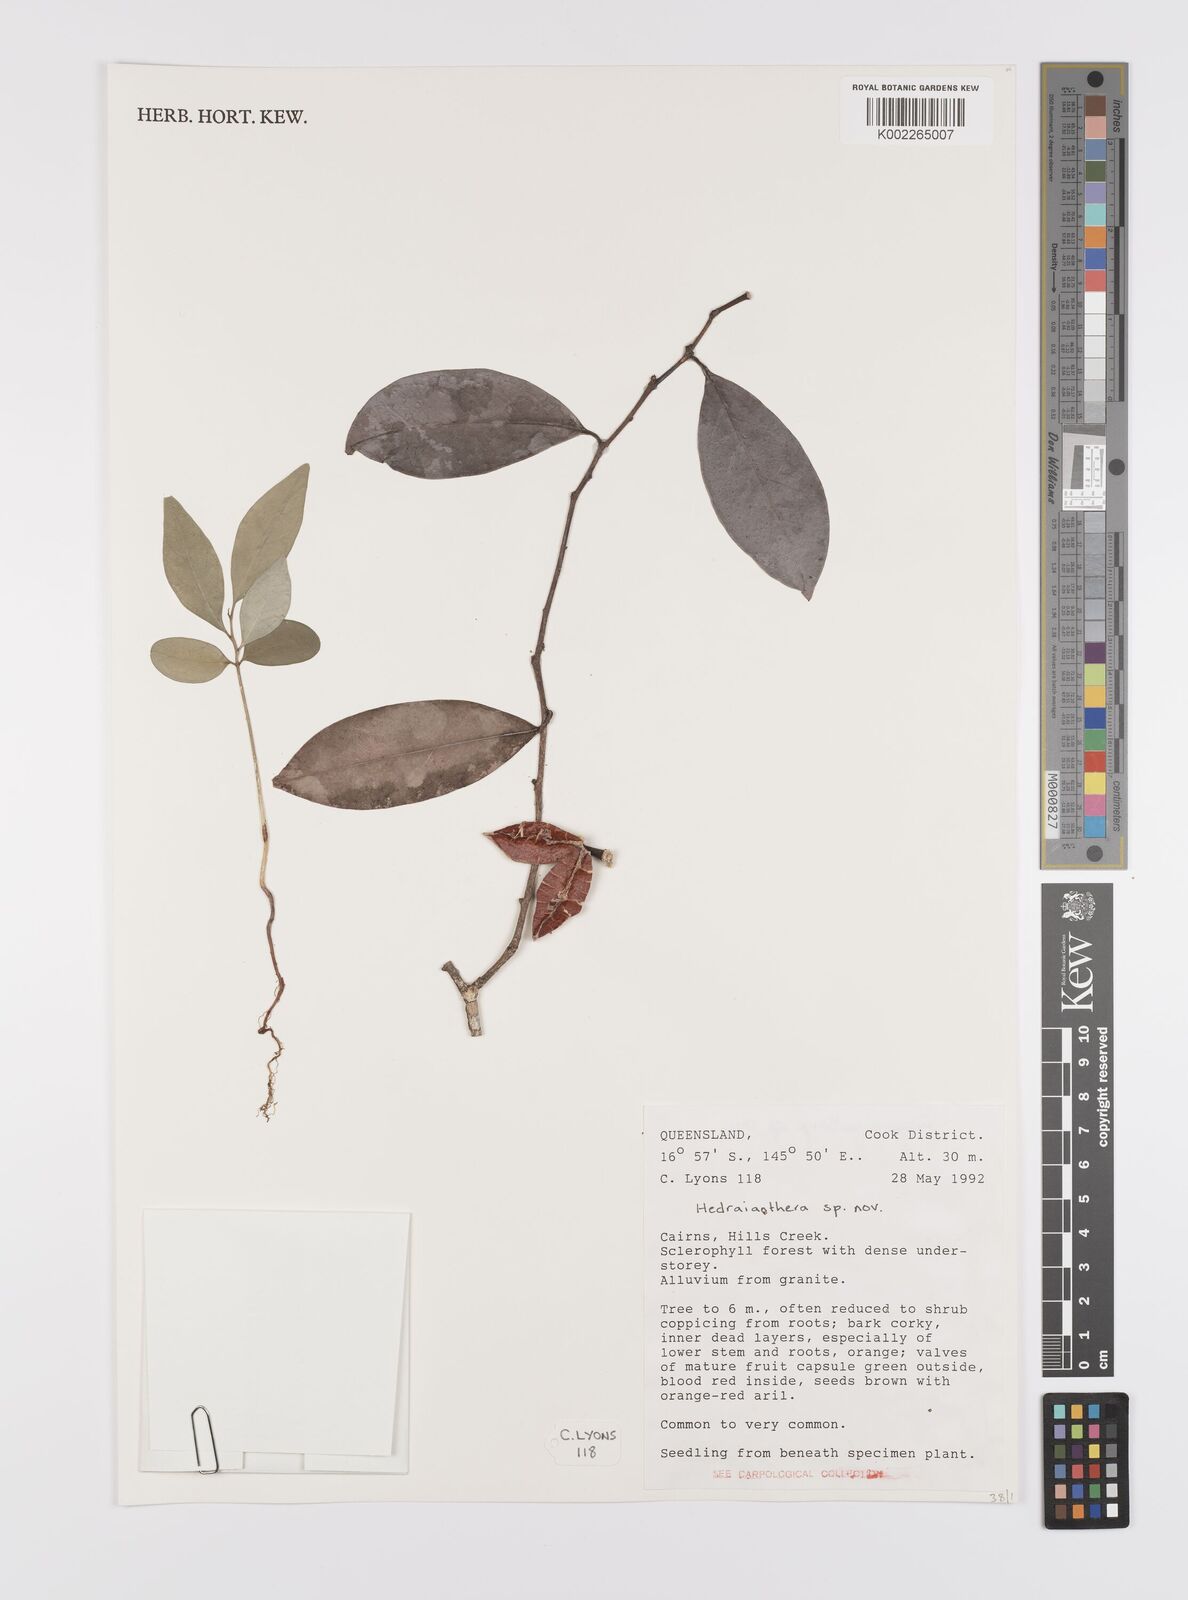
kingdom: Plantae
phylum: Tracheophyta
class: Magnoliopsida
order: Celastrales
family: Celastraceae
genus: Hedraianthera
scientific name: Hedraianthera
